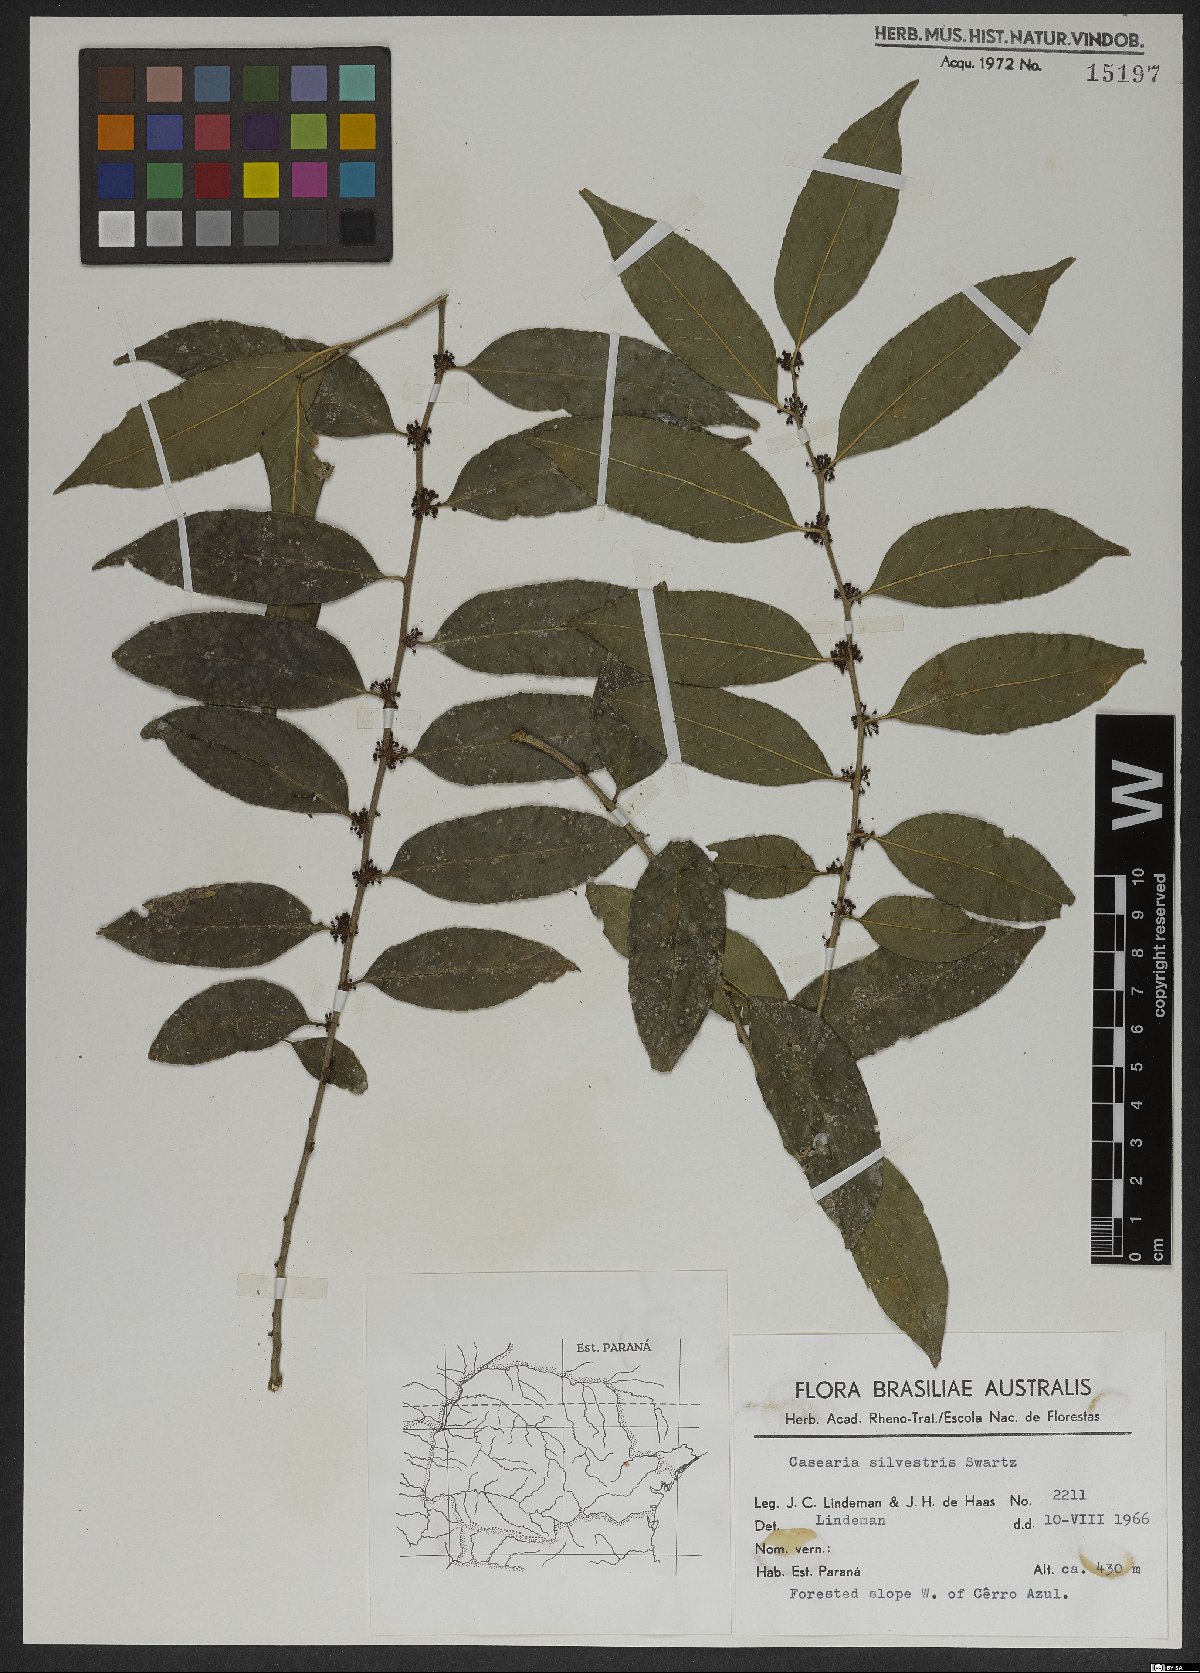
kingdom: Plantae
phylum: Tracheophyta
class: Magnoliopsida
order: Malpighiales
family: Salicaceae
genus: Casearia
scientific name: Casearia sylvestris
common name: Wild sage
